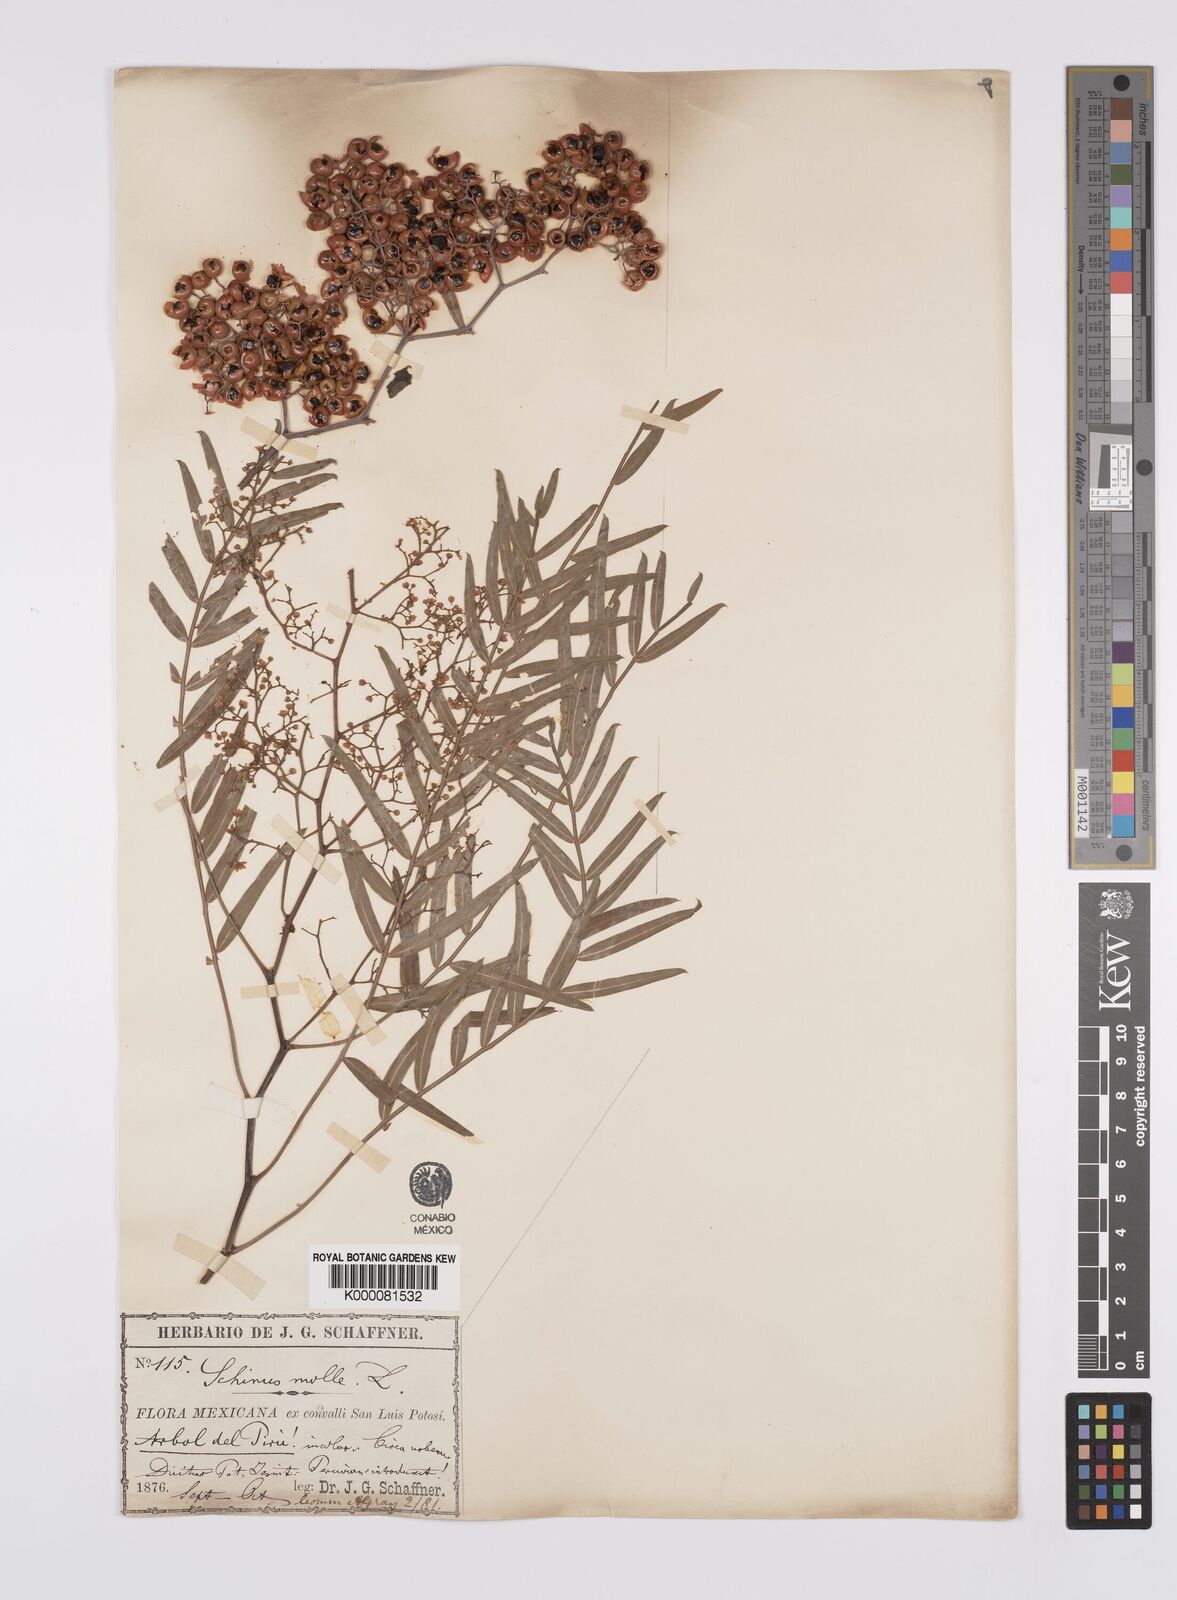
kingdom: Plantae
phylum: Tracheophyta
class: Magnoliopsida
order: Sapindales
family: Anacardiaceae
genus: Schinus
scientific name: Schinus molle
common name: Peruvian peppertree
